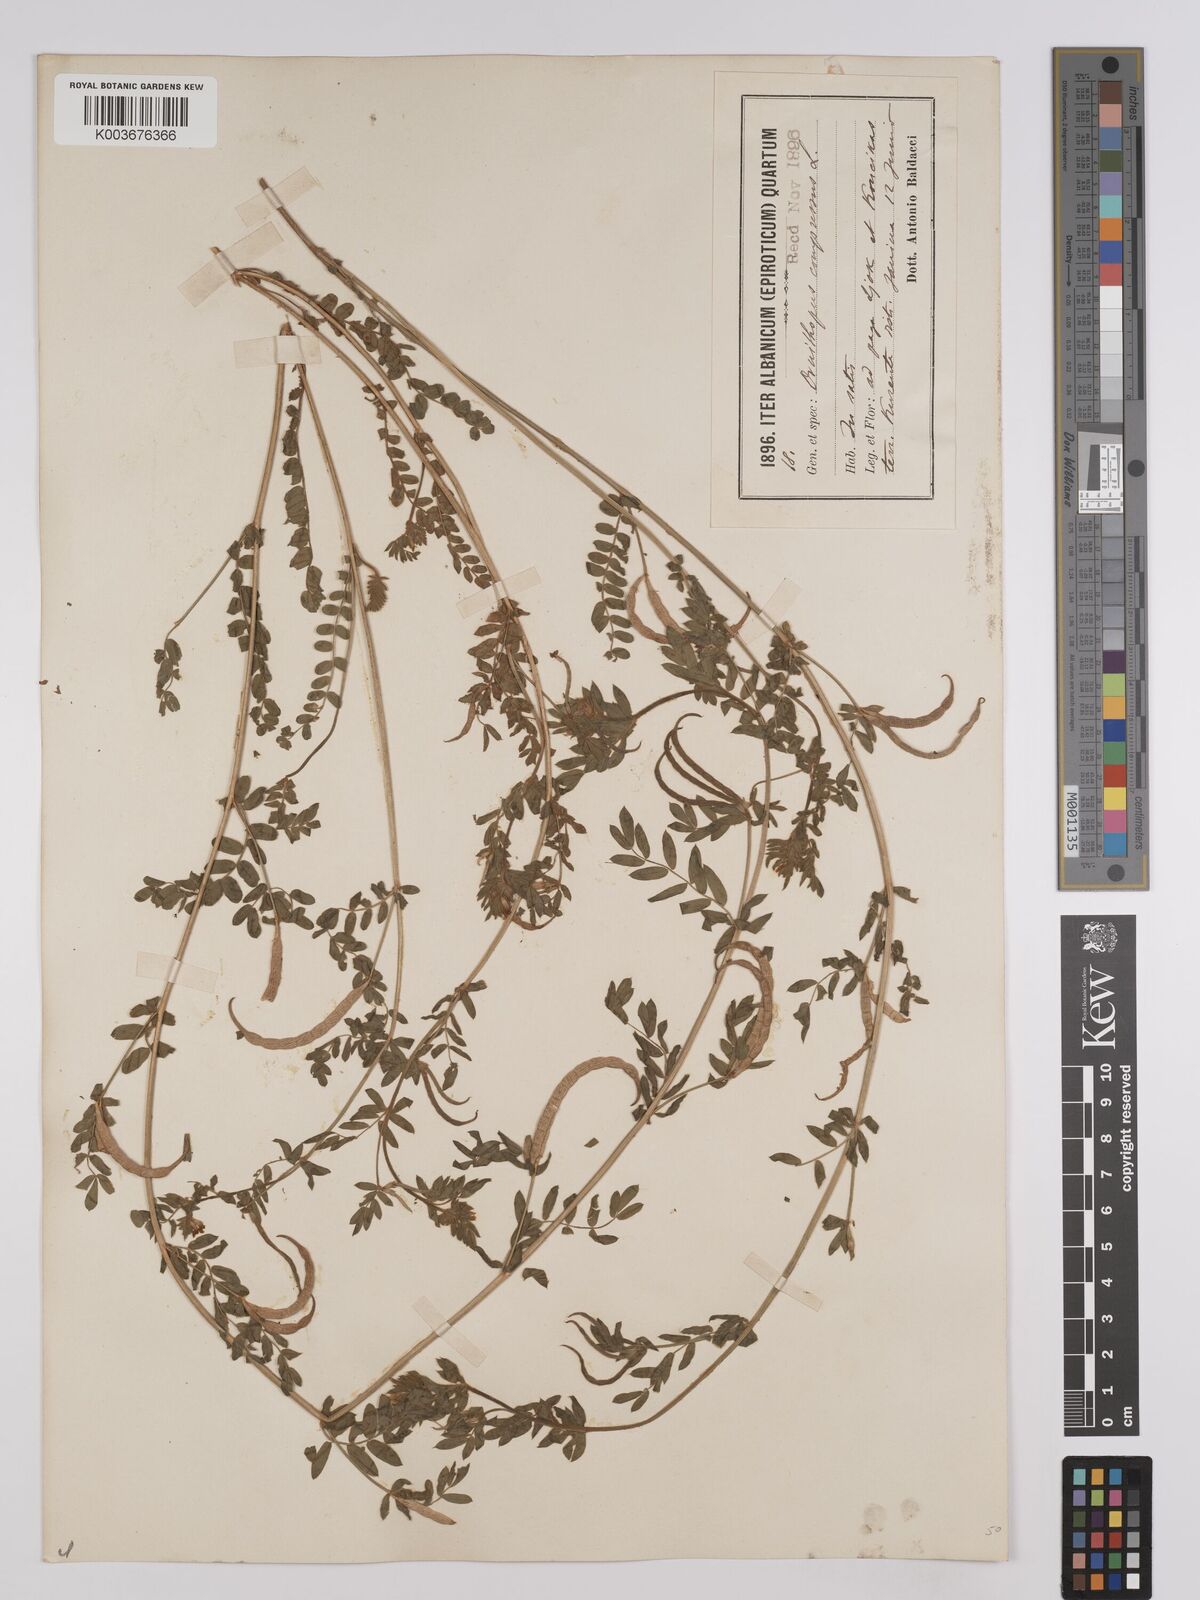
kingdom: Plantae
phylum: Tracheophyta
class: Magnoliopsida
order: Fabales
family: Fabaceae
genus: Ornithopus
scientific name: Ornithopus compressus
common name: Yellow serradella
